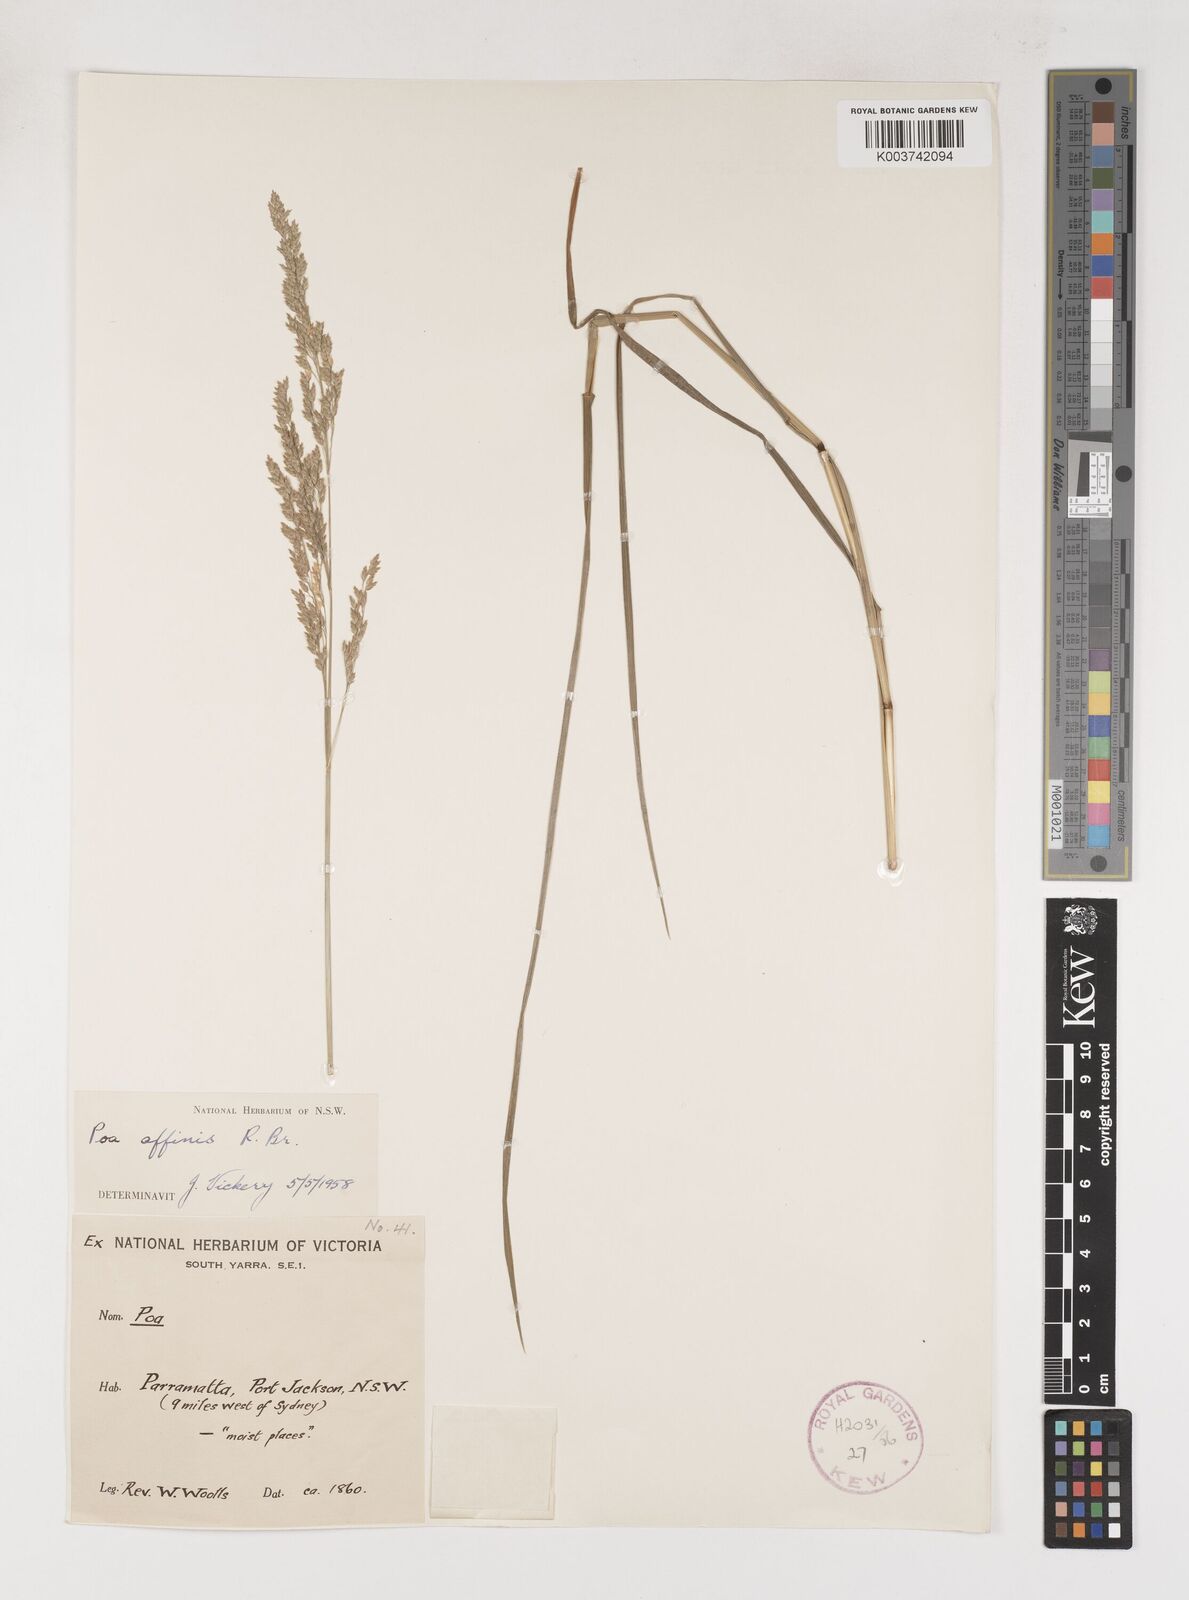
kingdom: Plantae
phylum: Tracheophyta
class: Liliopsida
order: Poales
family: Poaceae
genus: Poa
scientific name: Poa affinis
